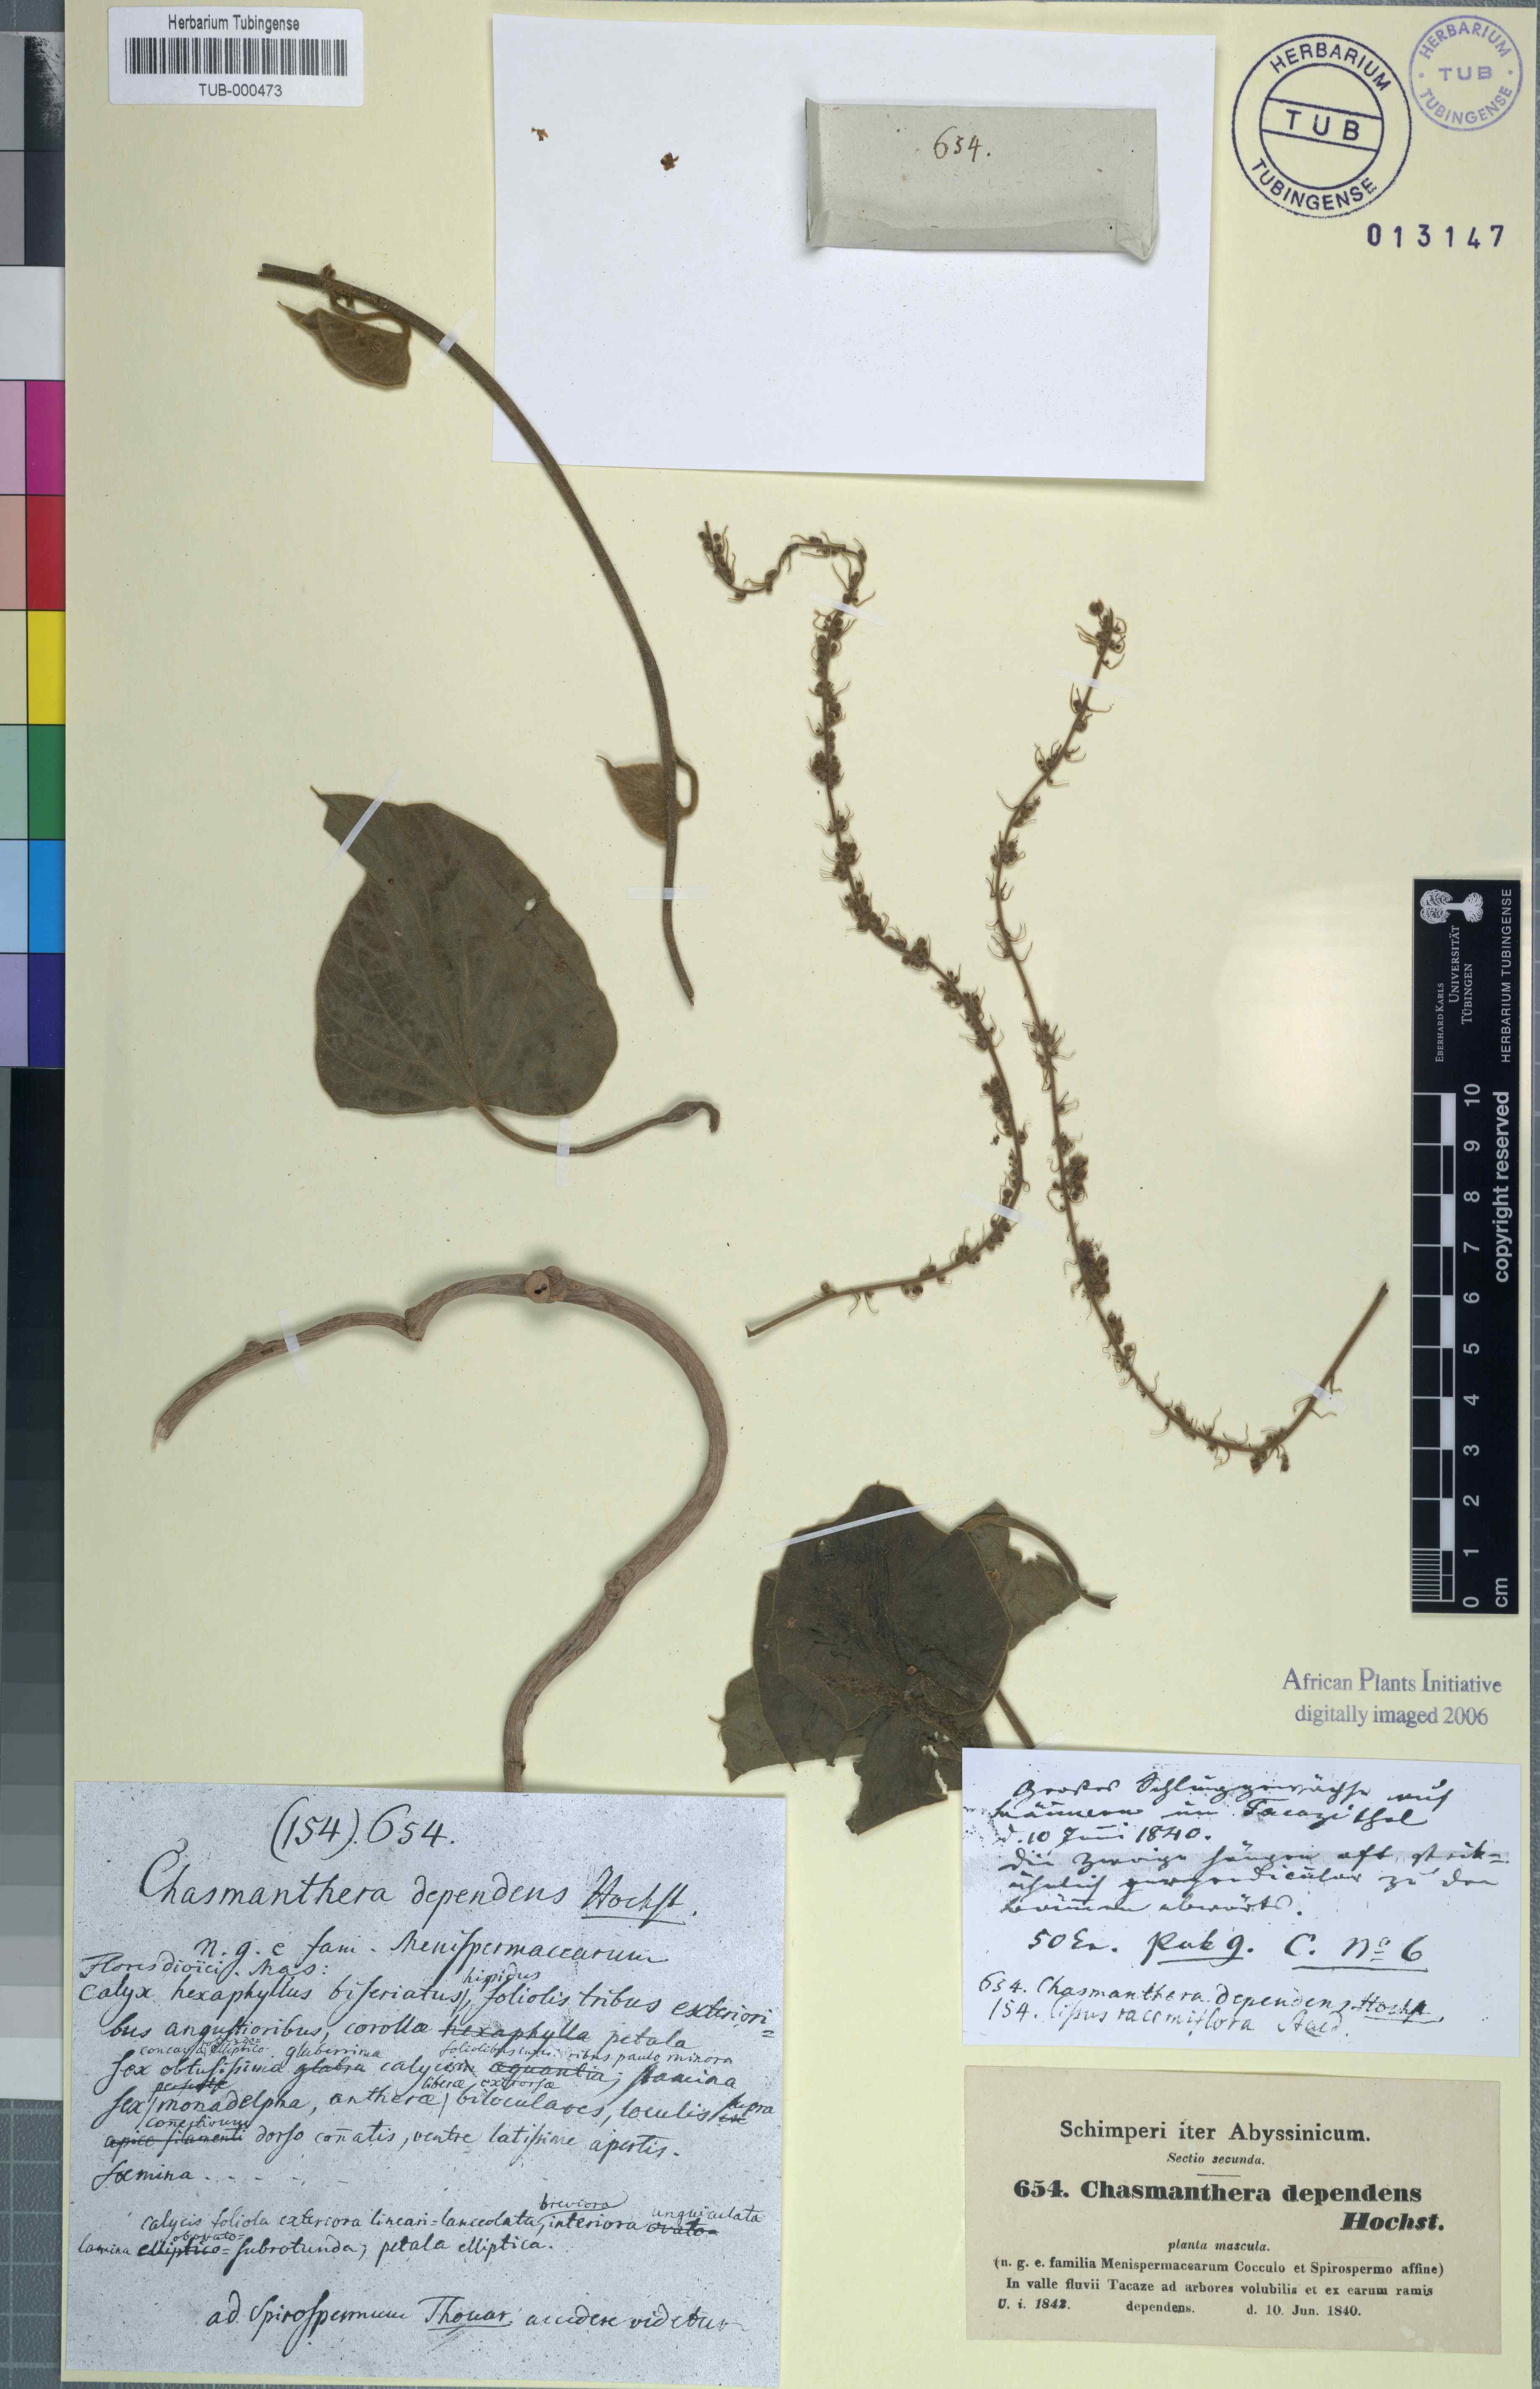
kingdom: Plantae
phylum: Tracheophyta
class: Magnoliopsida
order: Ranunculales
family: Menispermaceae
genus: Chasmanthera
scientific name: Chasmanthera dependens
